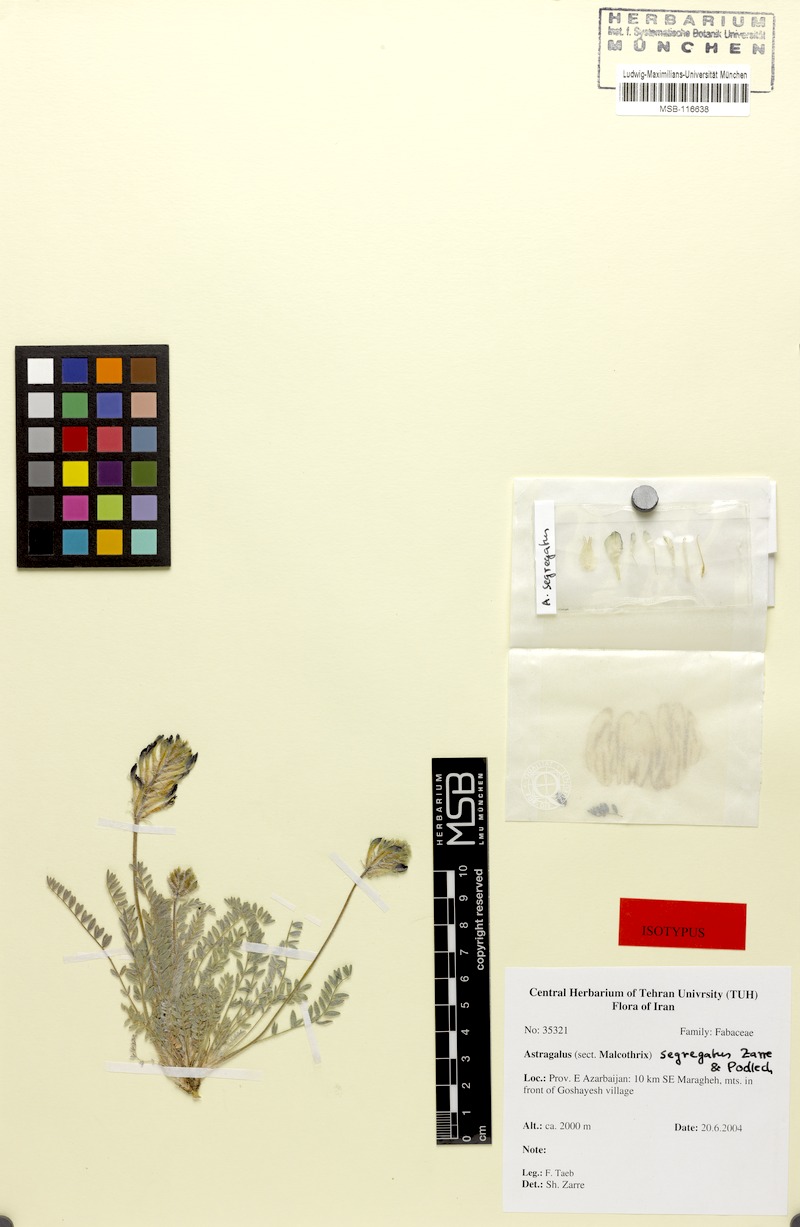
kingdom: Plantae
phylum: Tracheophyta
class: Magnoliopsida
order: Fabales
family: Fabaceae
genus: Astragalus
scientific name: Astragalus segregatus
